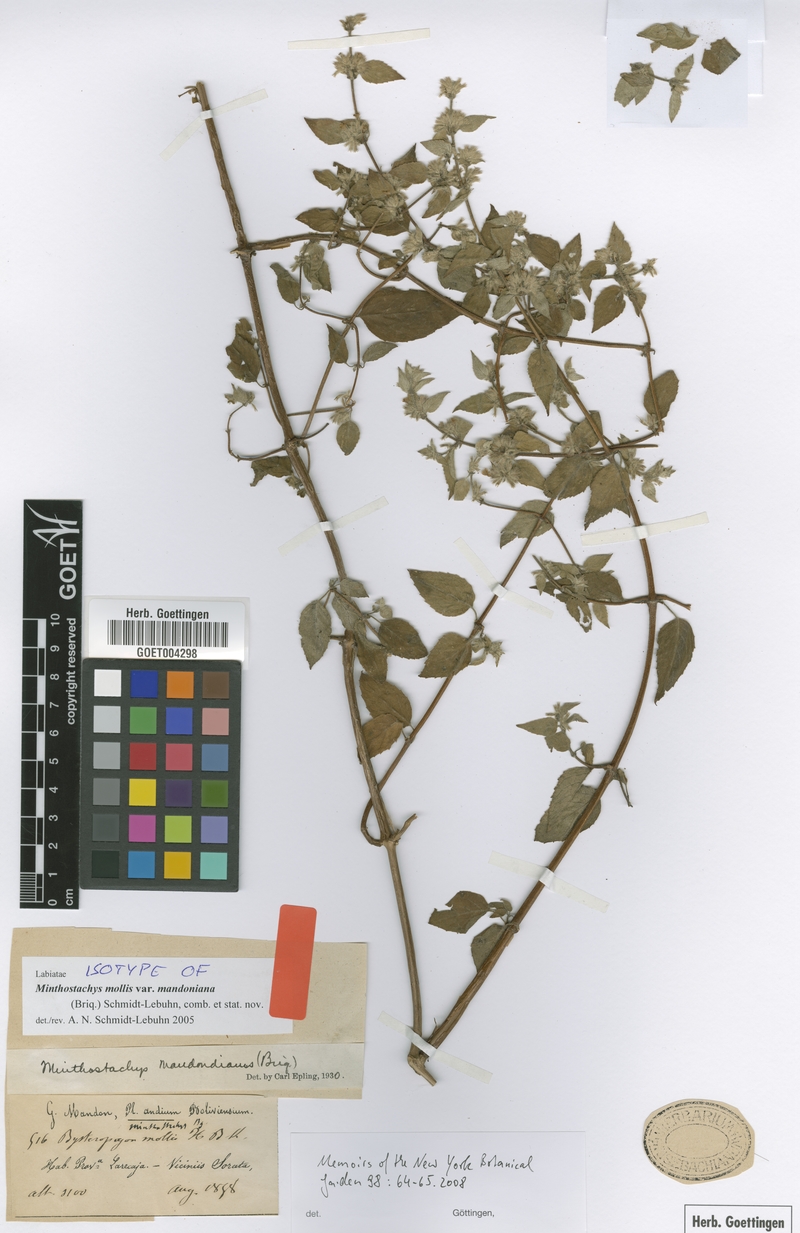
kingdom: Plantae
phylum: Tracheophyta
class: Magnoliopsida
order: Lamiales
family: Lamiaceae
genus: Minthostachys
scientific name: Minthostachys mollis
